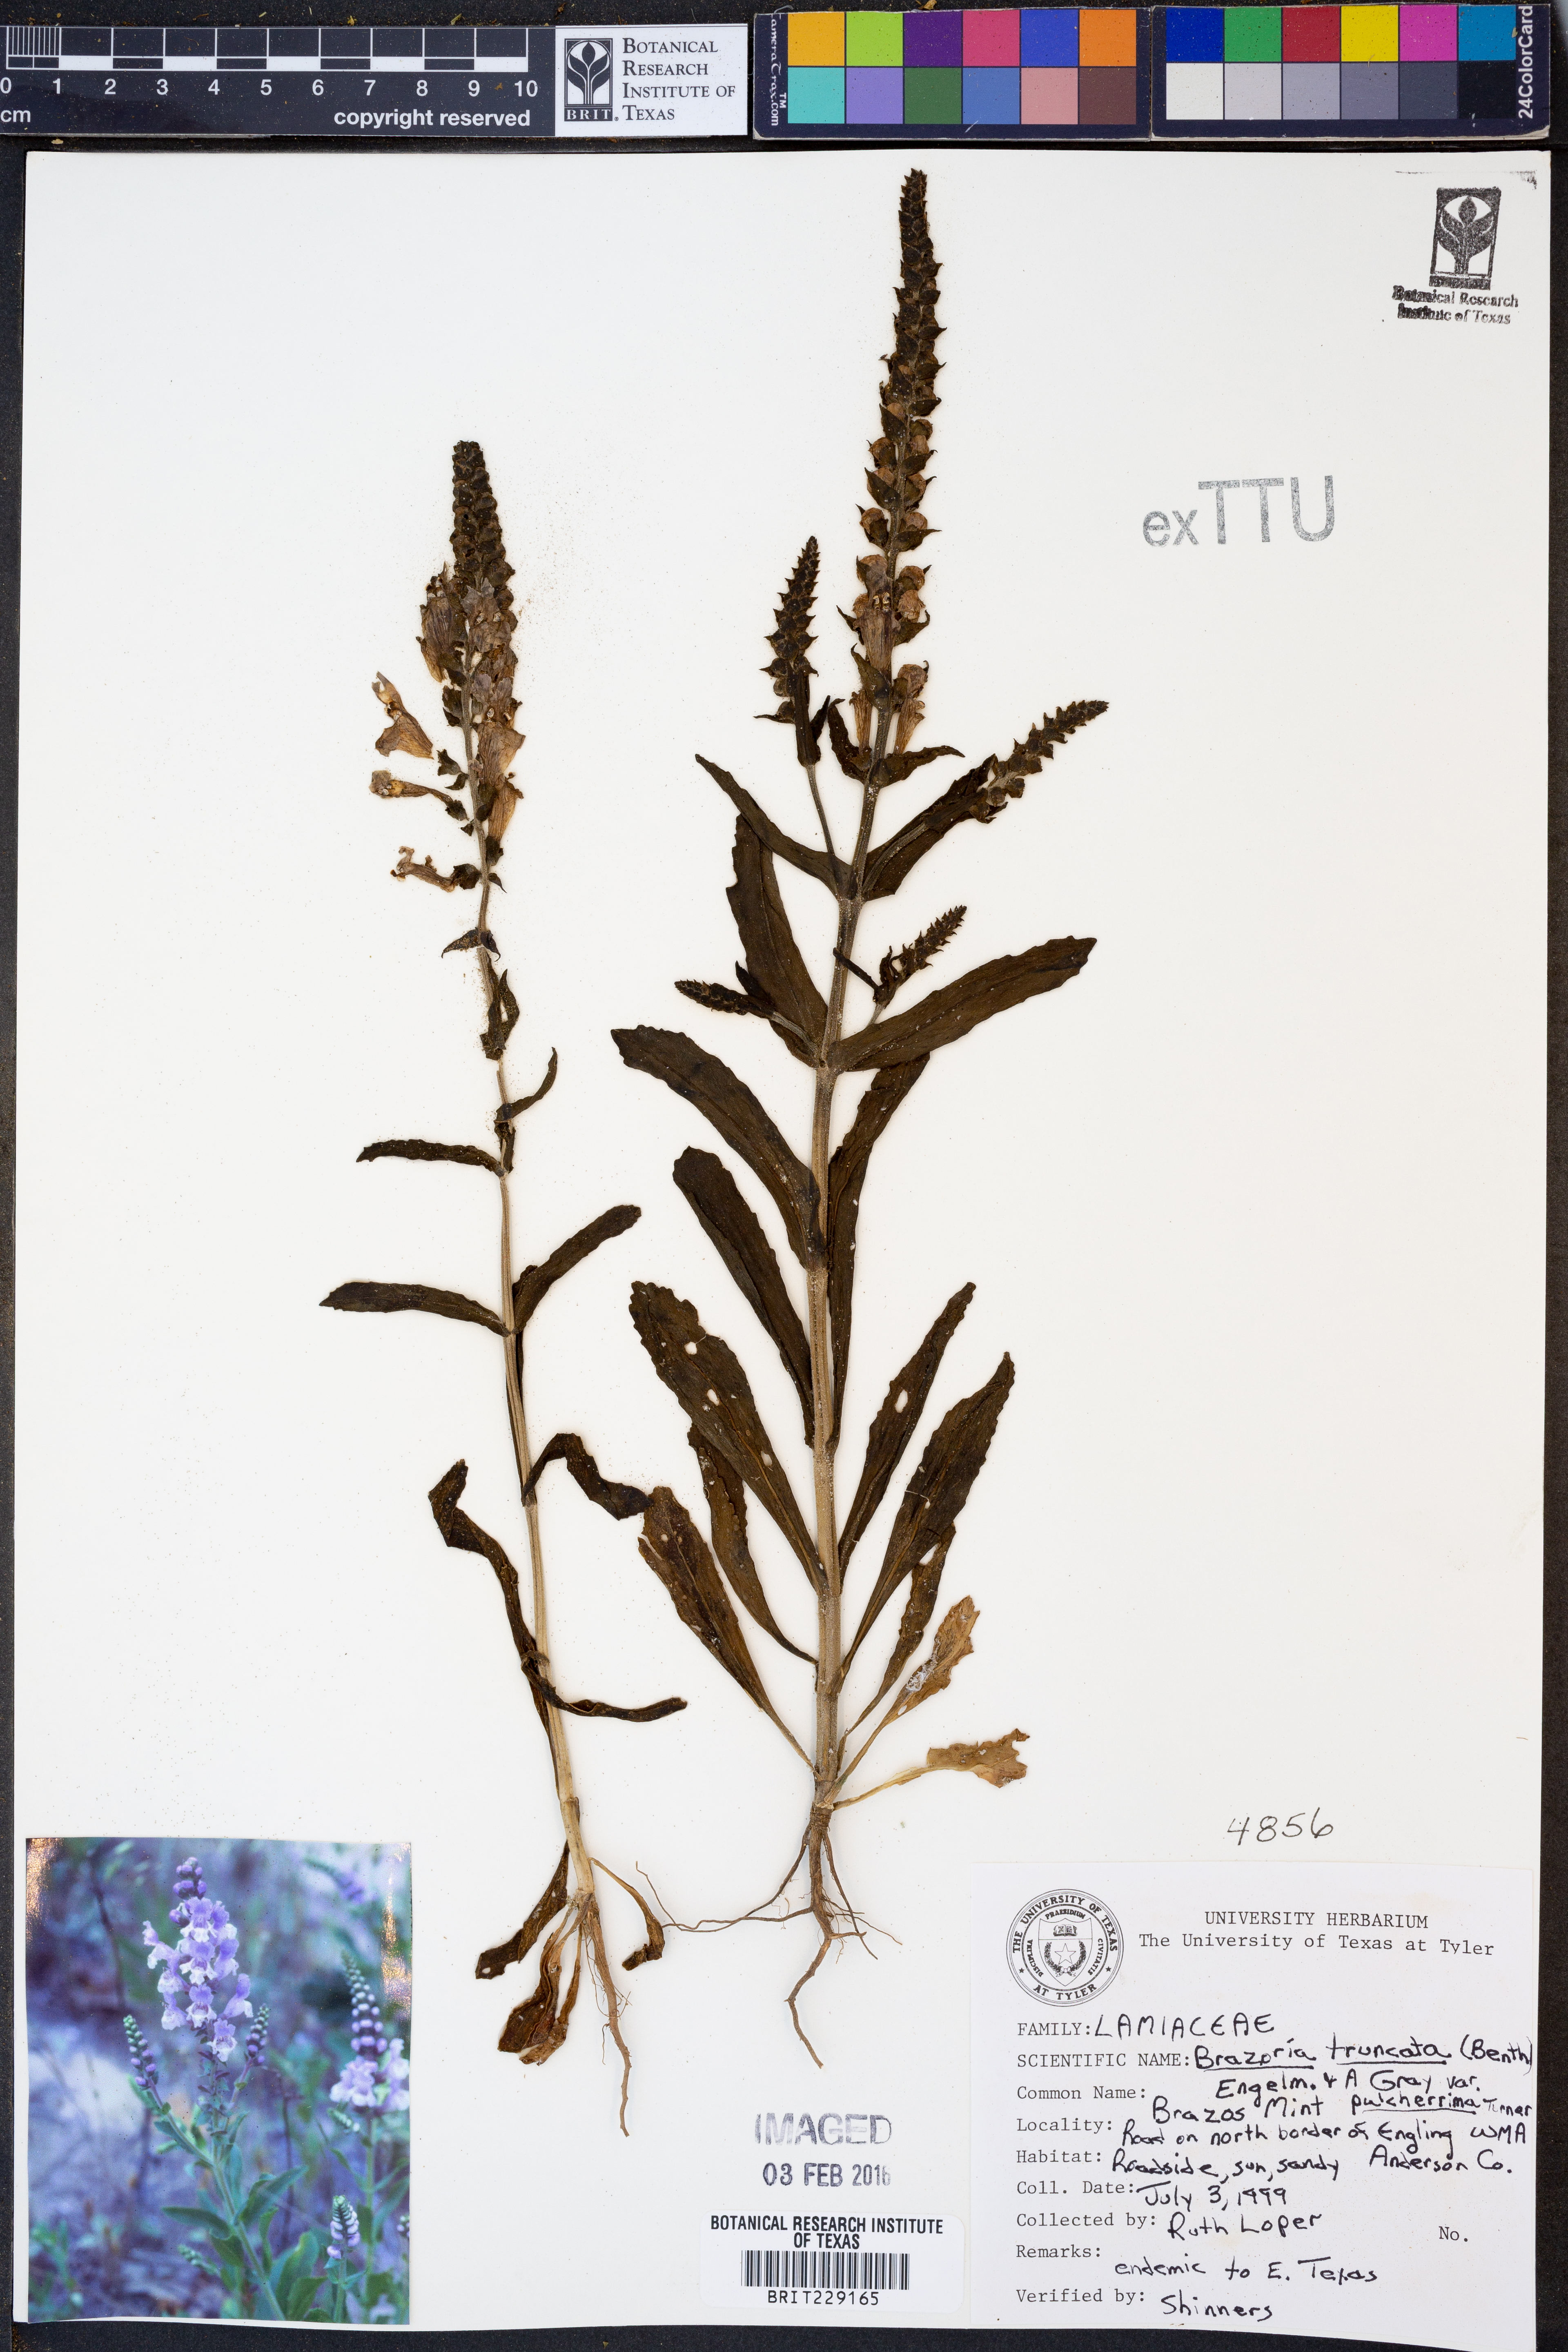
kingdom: Plantae
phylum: Tracheophyta
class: Magnoliopsida
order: Lamiales
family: Lamiaceae
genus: Brazoria
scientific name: Brazoria truncata
